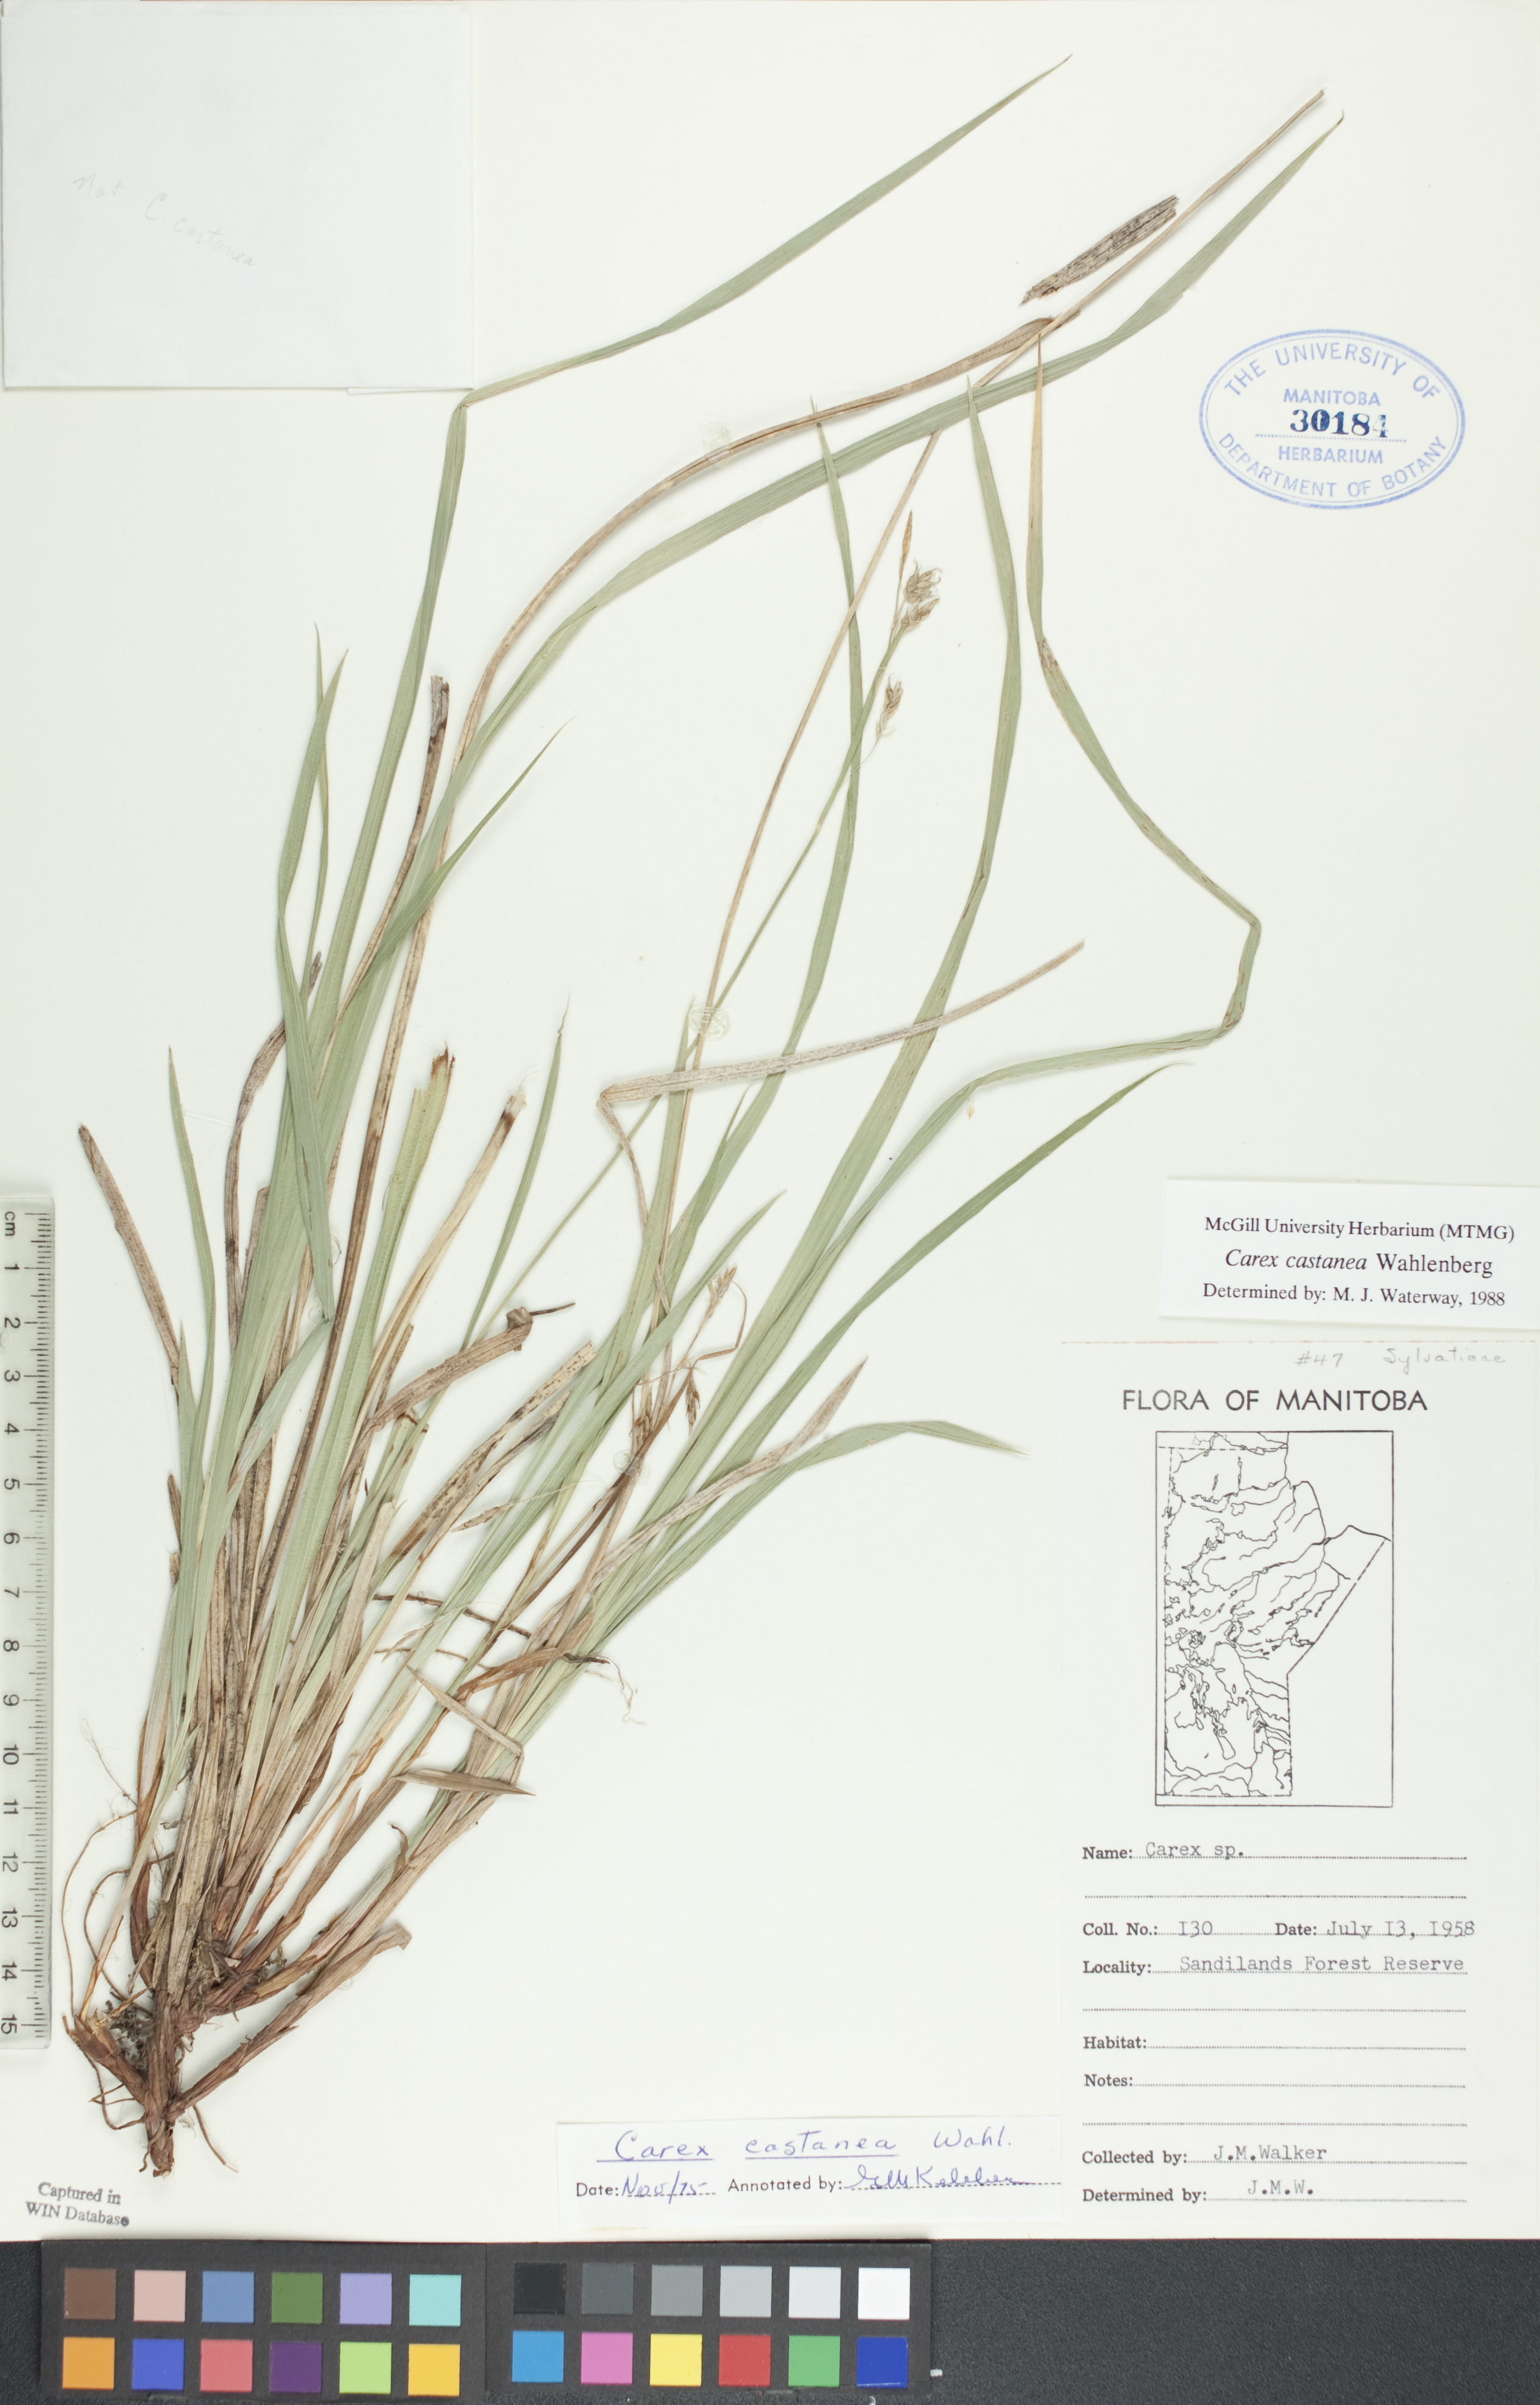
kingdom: Plantae
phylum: Tracheophyta
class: Liliopsida
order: Poales
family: Cyperaceae
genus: Carex
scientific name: Carex castanea
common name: Chestnut sedge
